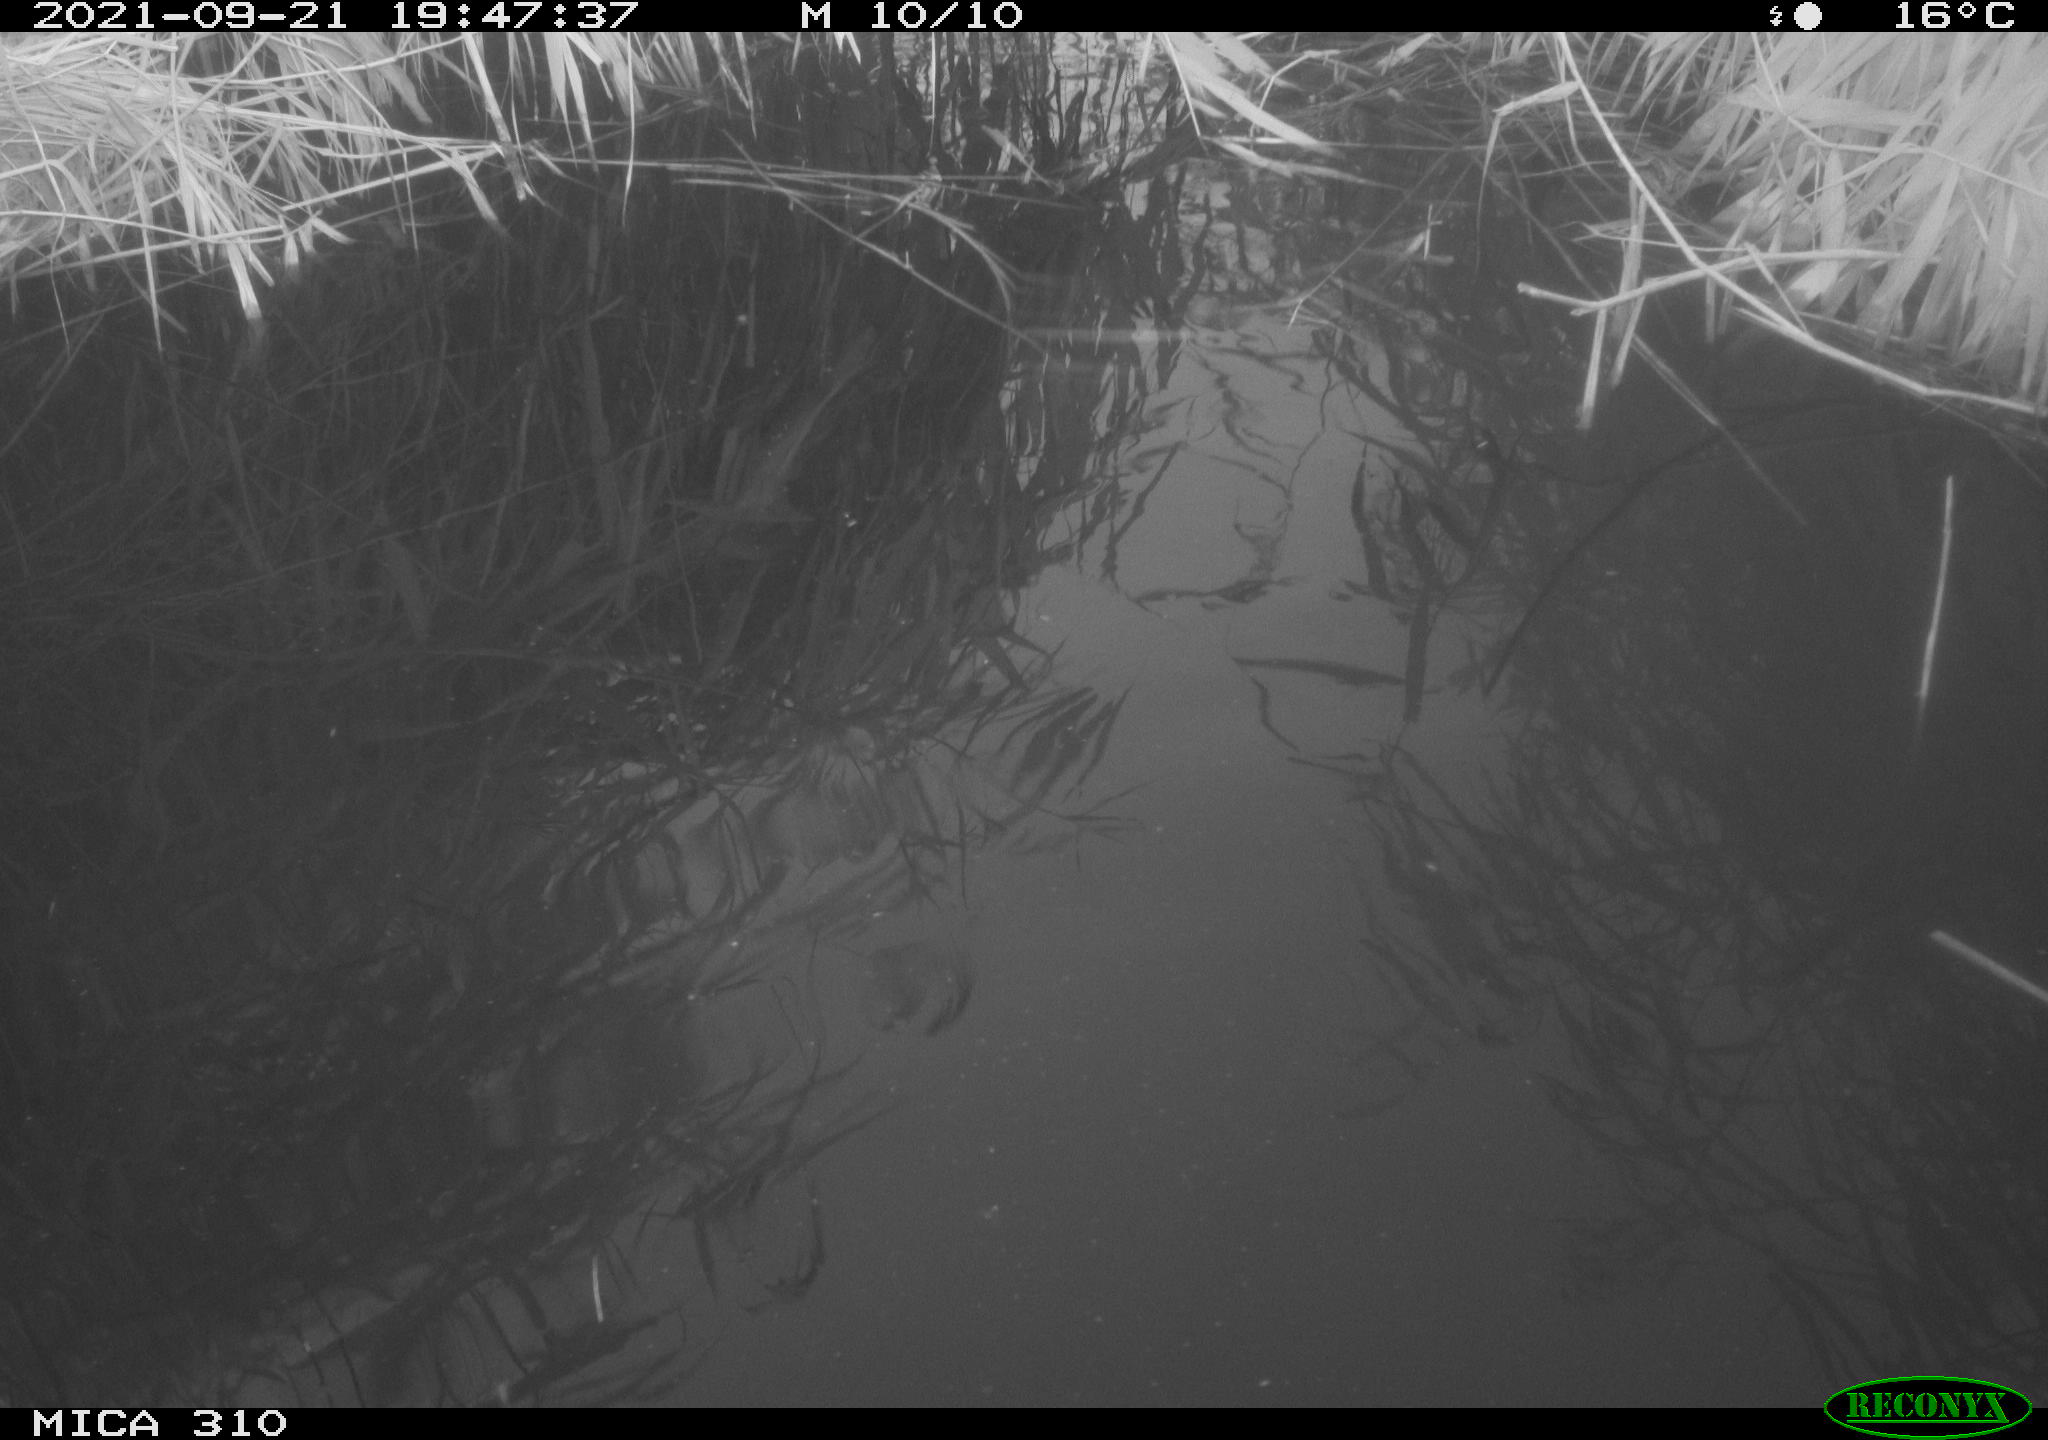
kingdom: Animalia
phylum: Chordata
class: Mammalia
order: Rodentia
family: Muridae
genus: Rattus
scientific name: Rattus norvegicus
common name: Brown rat
